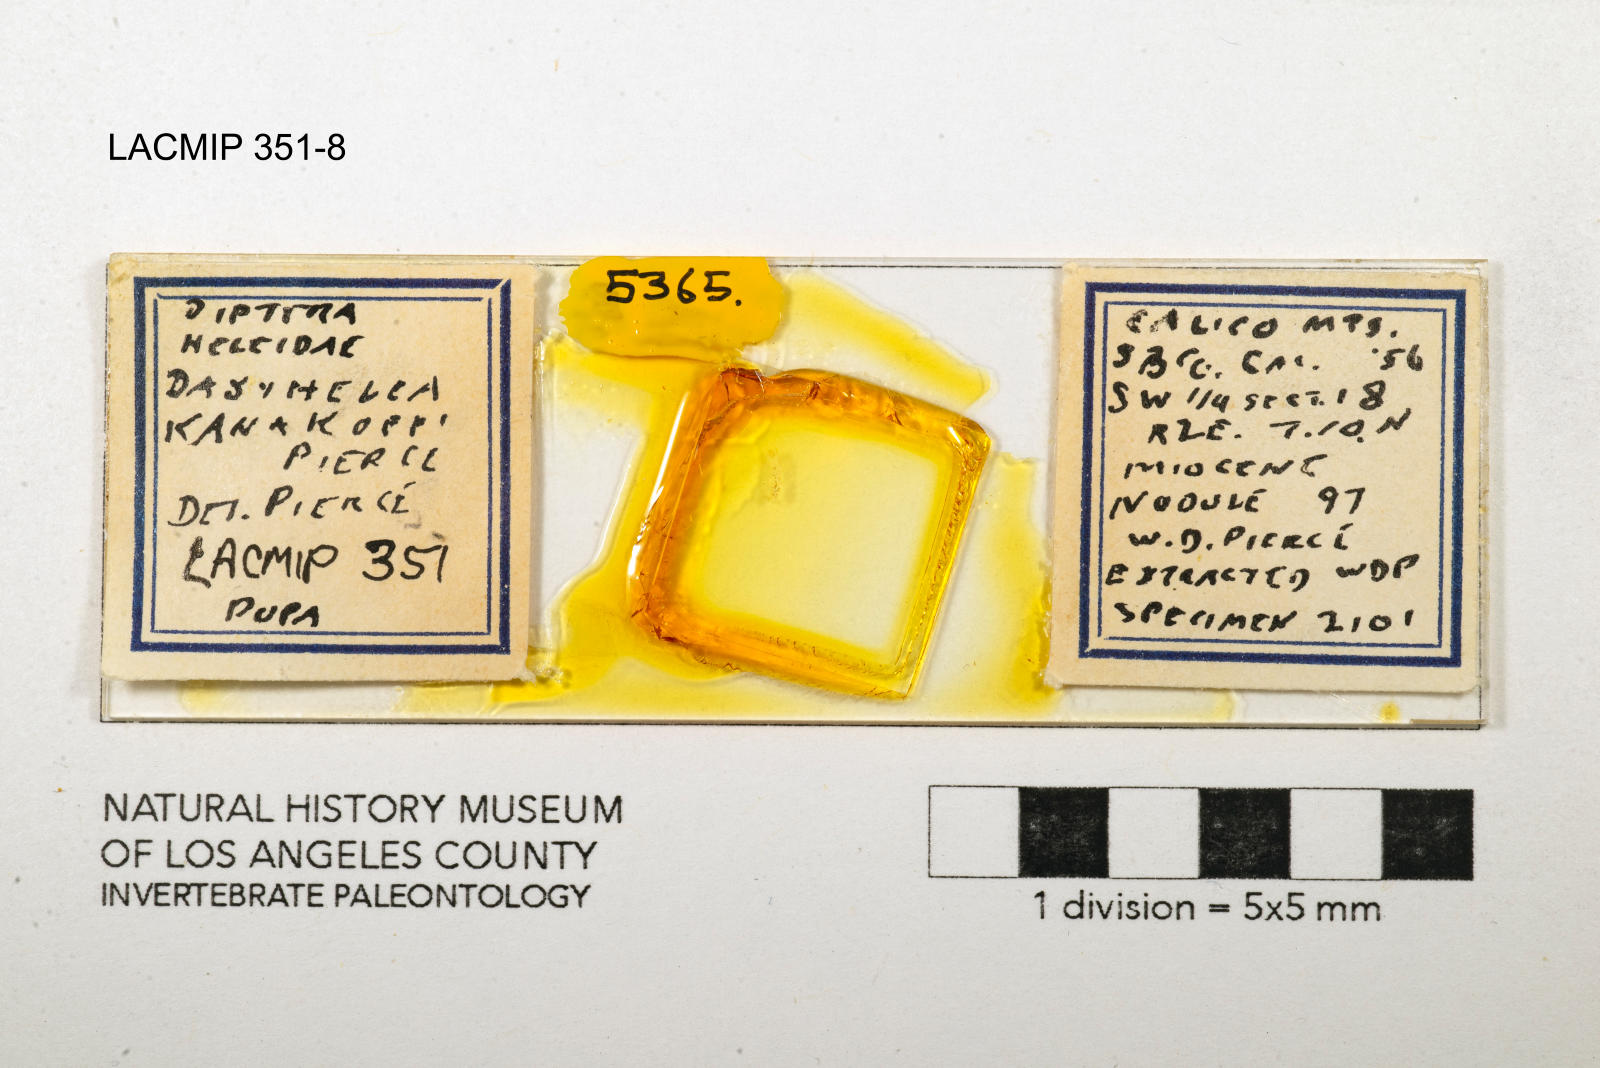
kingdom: Animalia
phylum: Arthropoda
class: Insecta
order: Diptera
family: Ceratopogonidae
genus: Dasyhelea
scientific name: Dasyhelea kanakoffi
